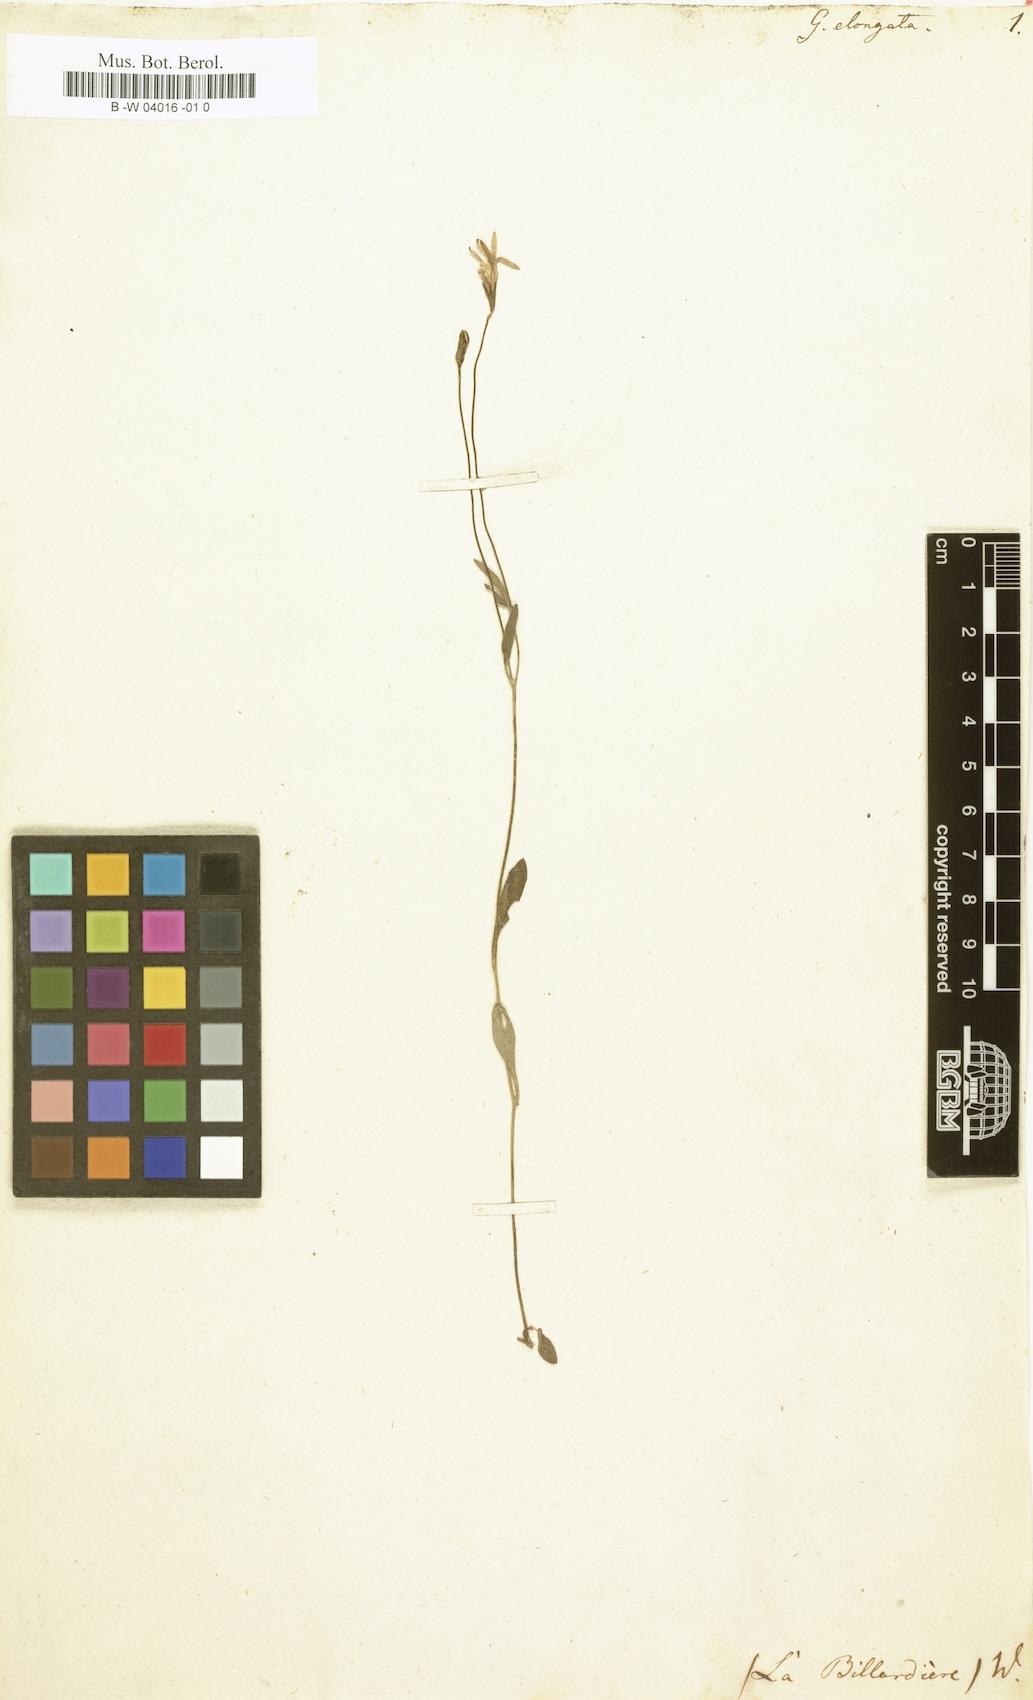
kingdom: Plantae
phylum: Tracheophyta
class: Magnoliopsida
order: Asterales
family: Goodeniaceae
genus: Goodenia
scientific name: Goodenia elongata
